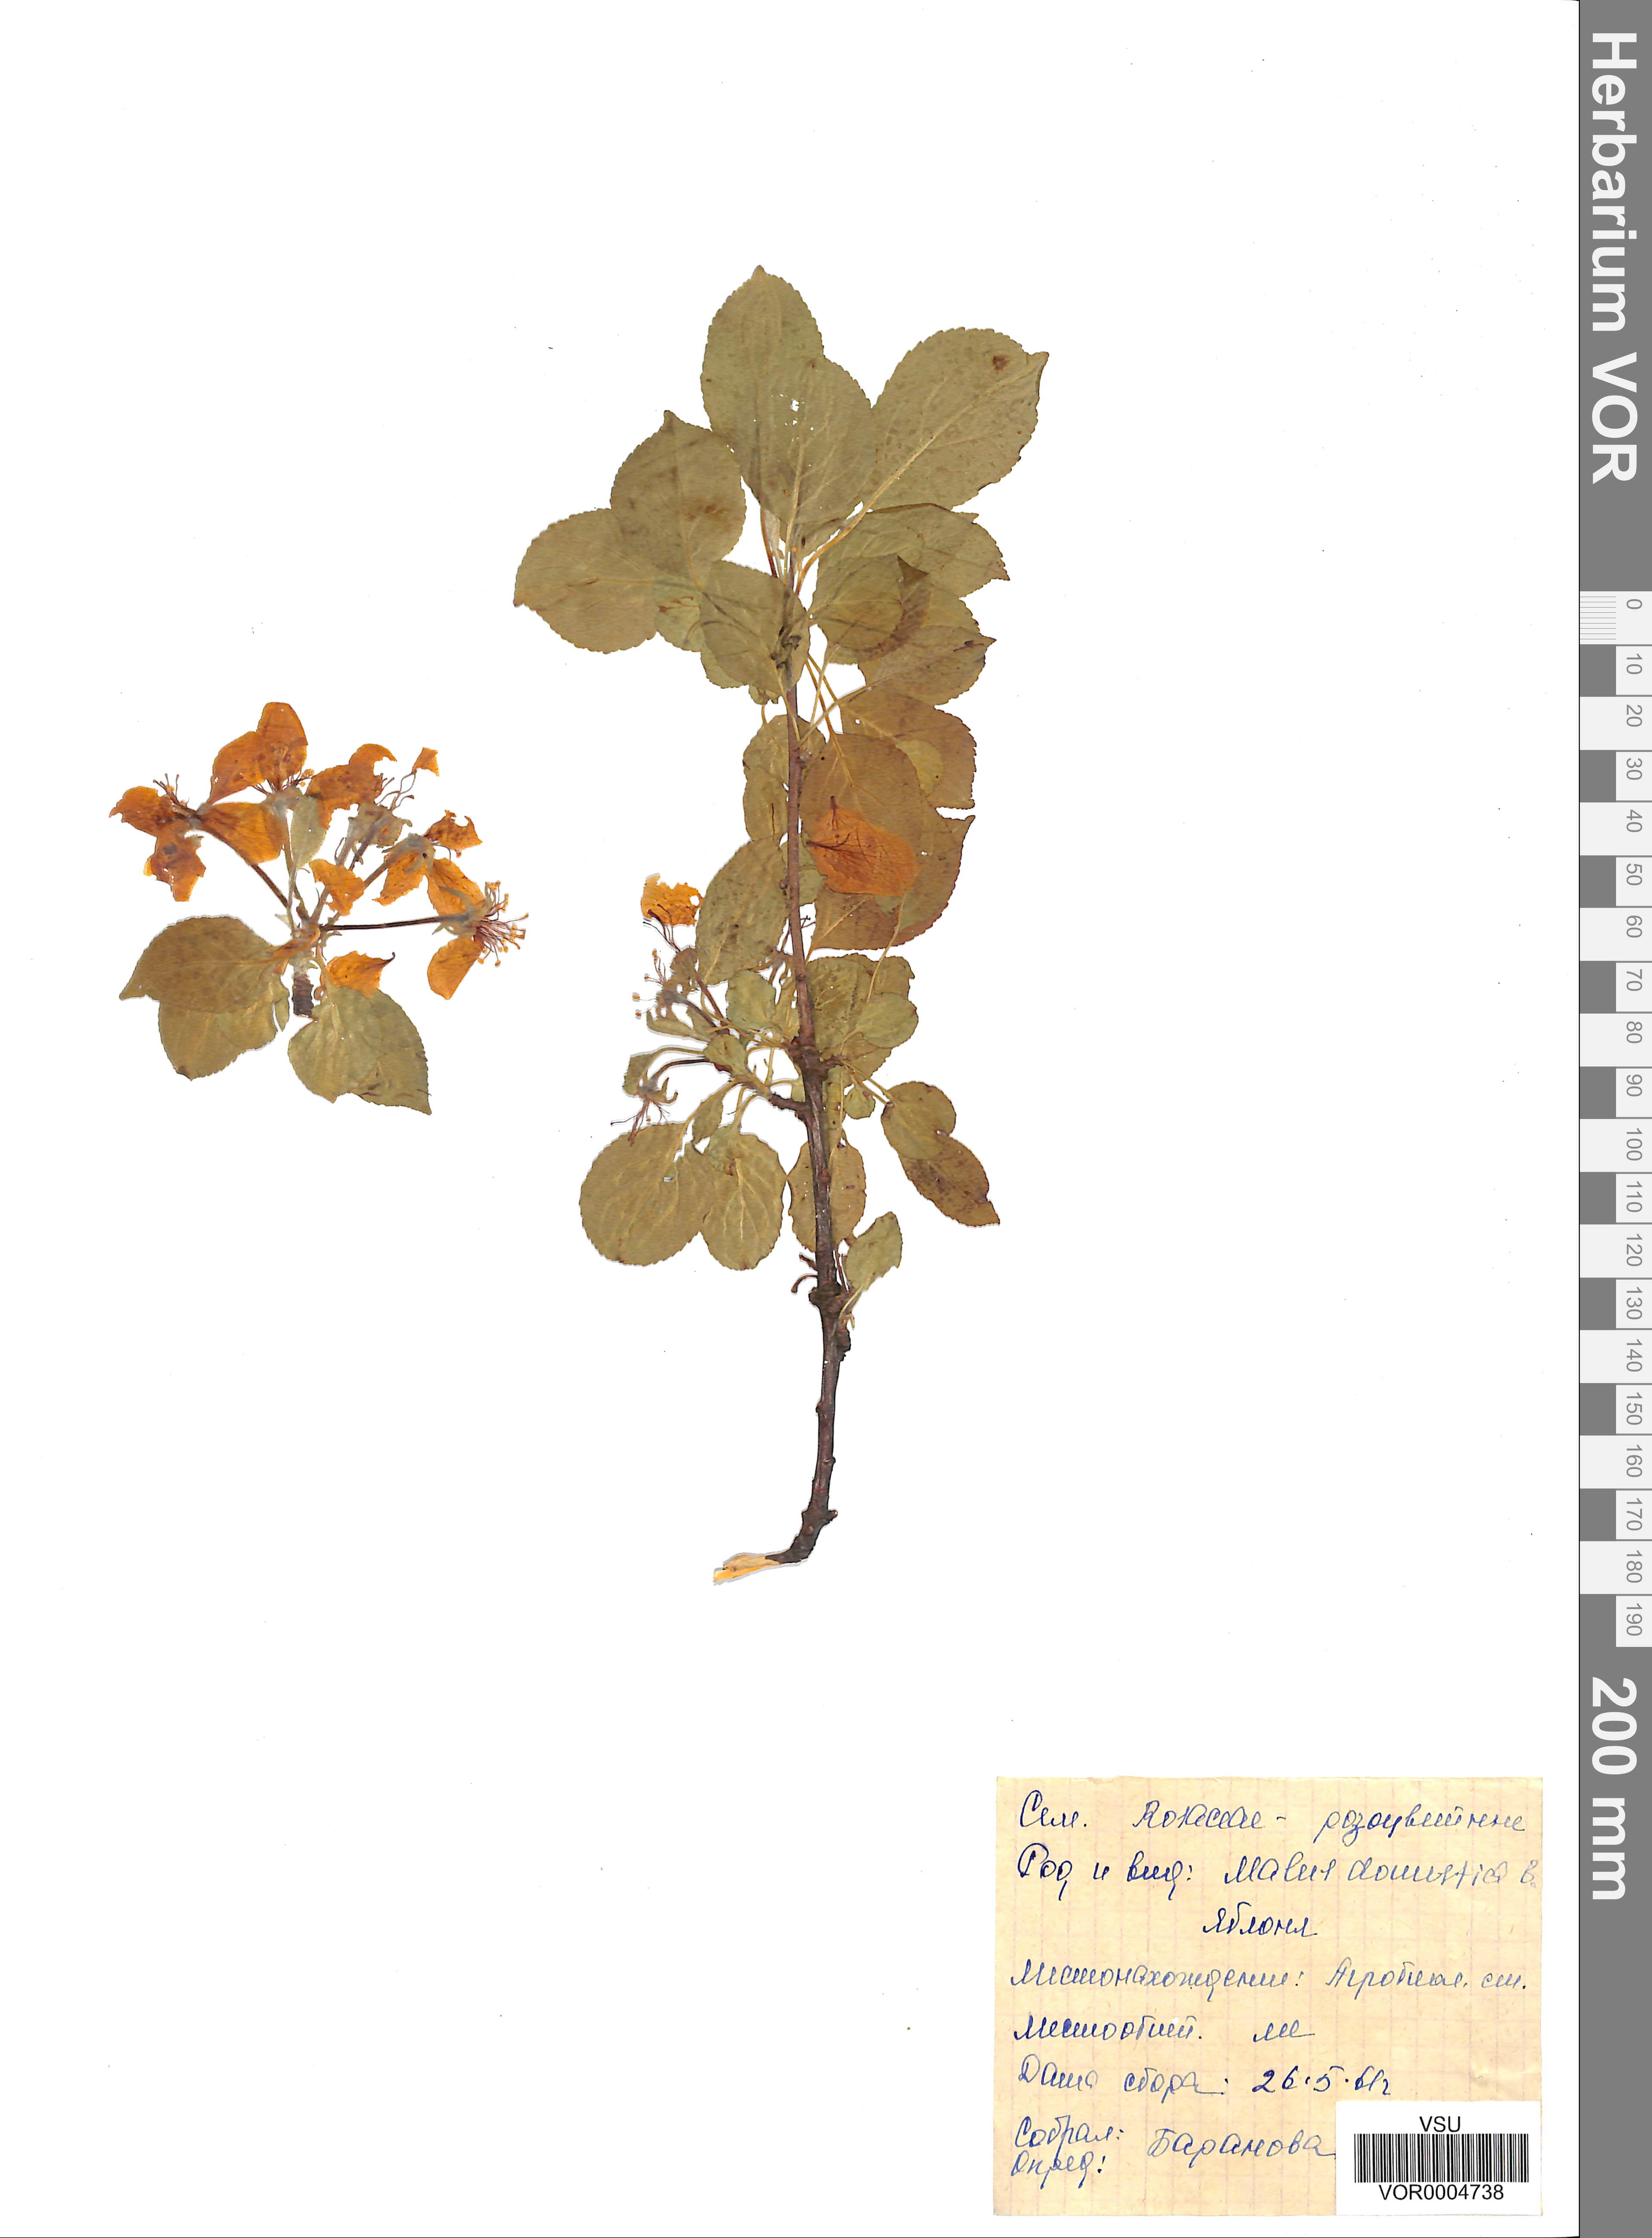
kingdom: Plantae
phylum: Tracheophyta
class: Magnoliopsida
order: Rosales
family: Rosaceae
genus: Malus
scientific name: Malus domestica
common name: Apple
